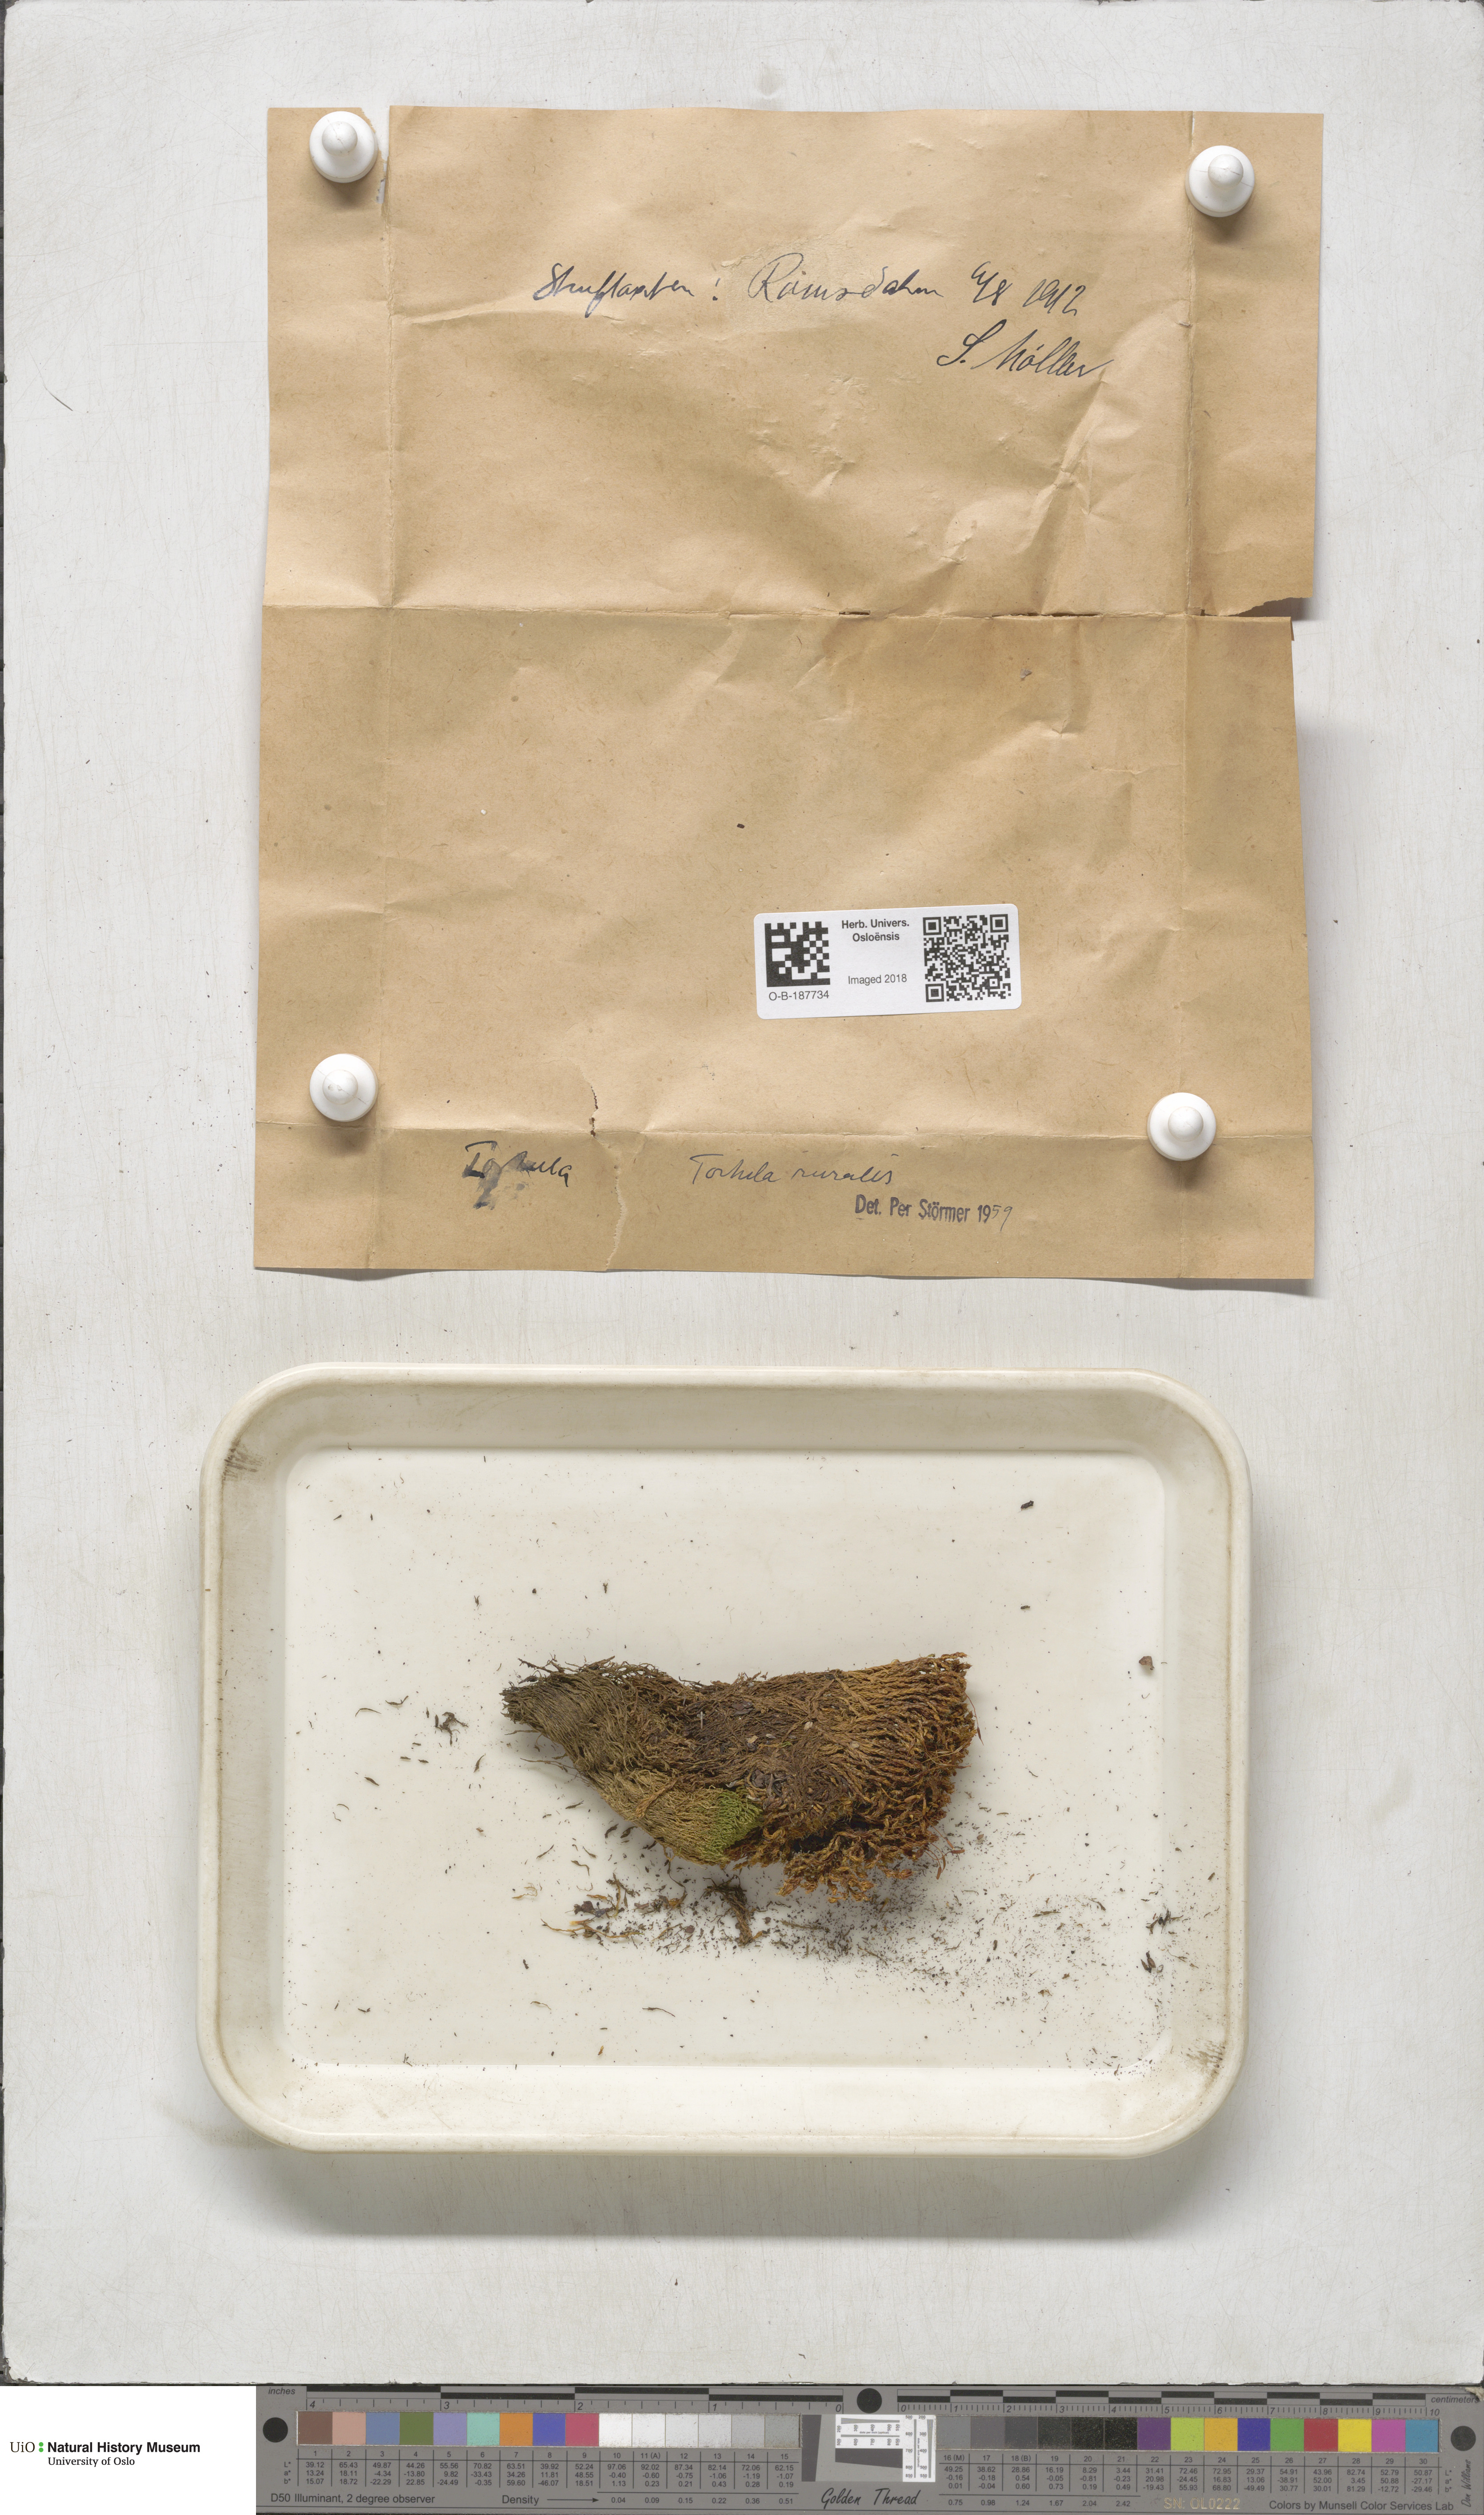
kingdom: Plantae
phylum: Bryophyta
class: Bryopsida
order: Pottiales
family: Pottiaceae
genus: Syntrichia
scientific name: Syntrichia ruralis
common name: Sidewalk screw moss
